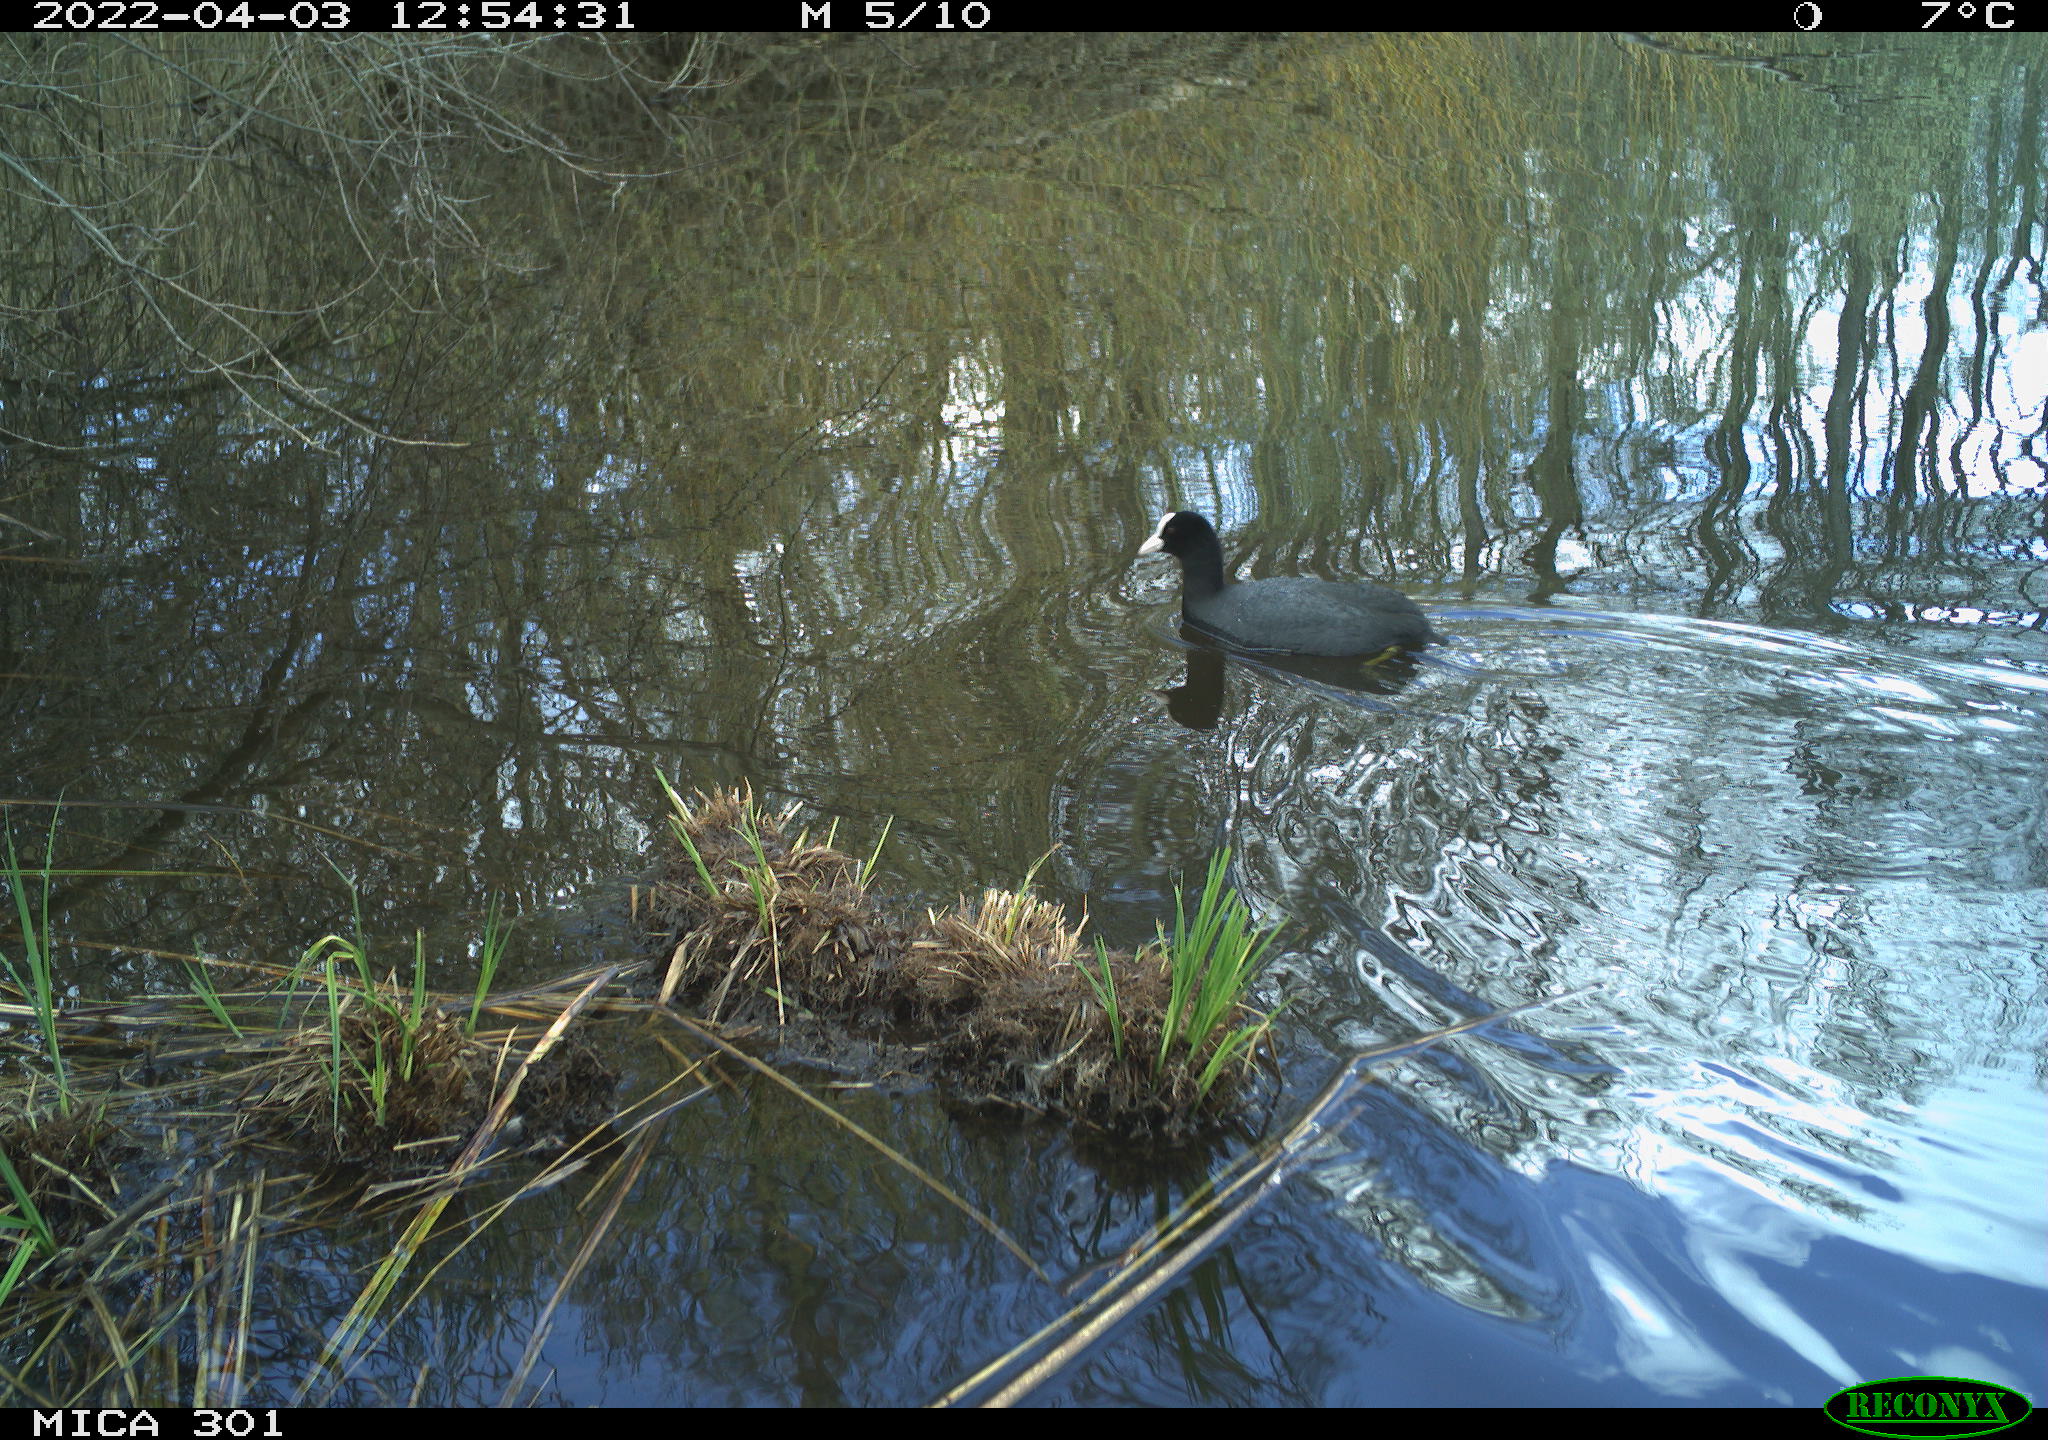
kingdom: Animalia
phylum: Chordata
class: Aves
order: Gruiformes
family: Rallidae
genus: Fulica
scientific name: Fulica atra
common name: Eurasian coot
